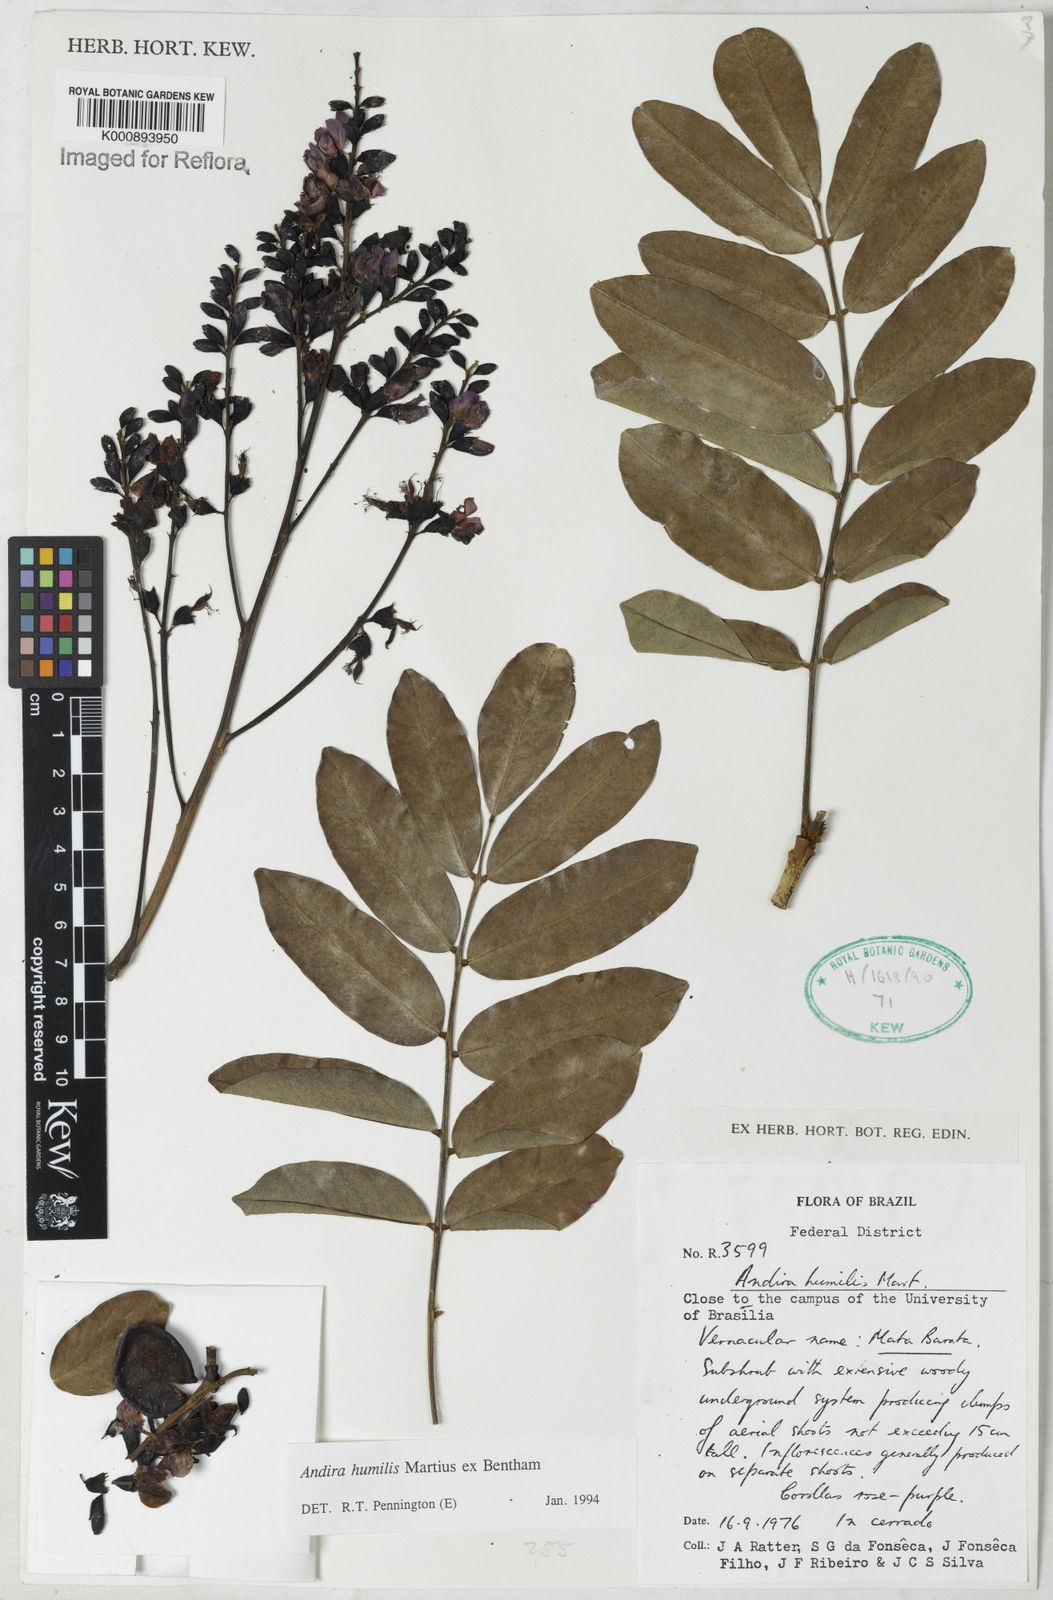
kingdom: Plantae
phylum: Tracheophyta
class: Magnoliopsida
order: Fabales
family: Fabaceae
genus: Andira
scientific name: Andira humilis
